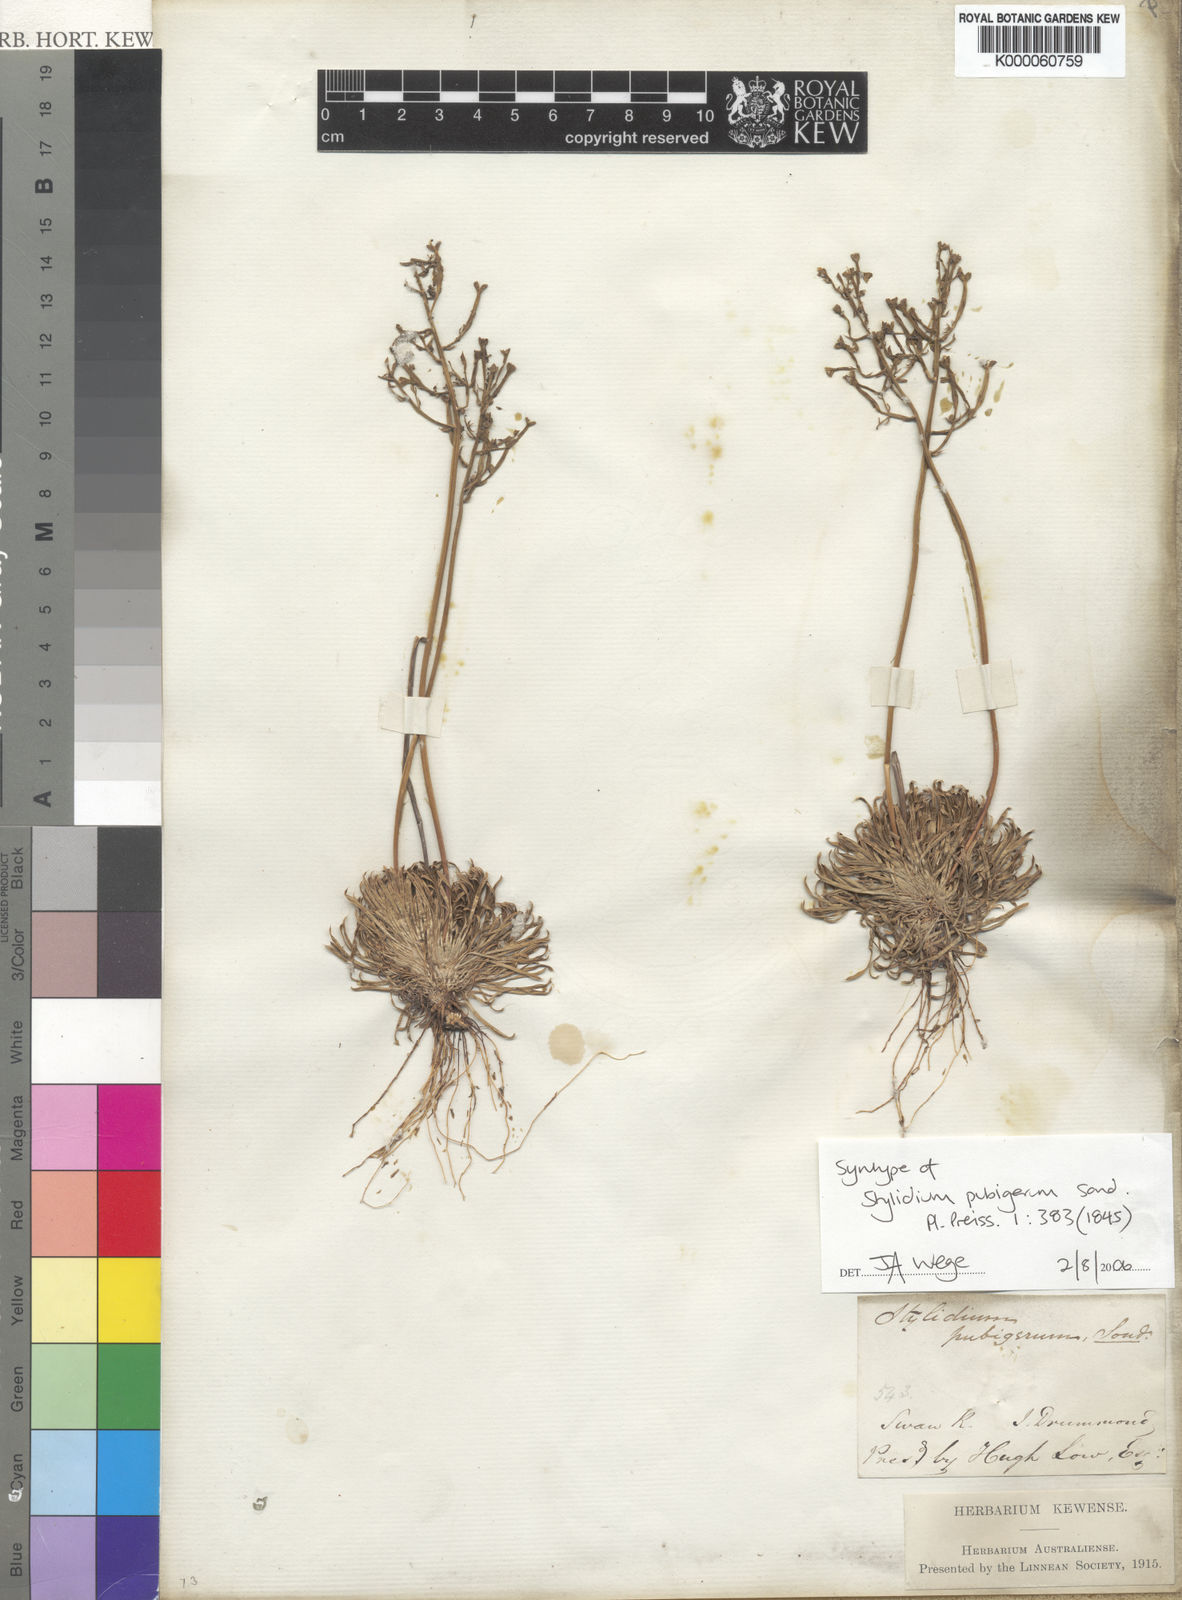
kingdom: Plantae
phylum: Tracheophyta
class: Magnoliopsida
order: Asterales
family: Stylidiaceae
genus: Stylidium
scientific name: Stylidium pubigerum
